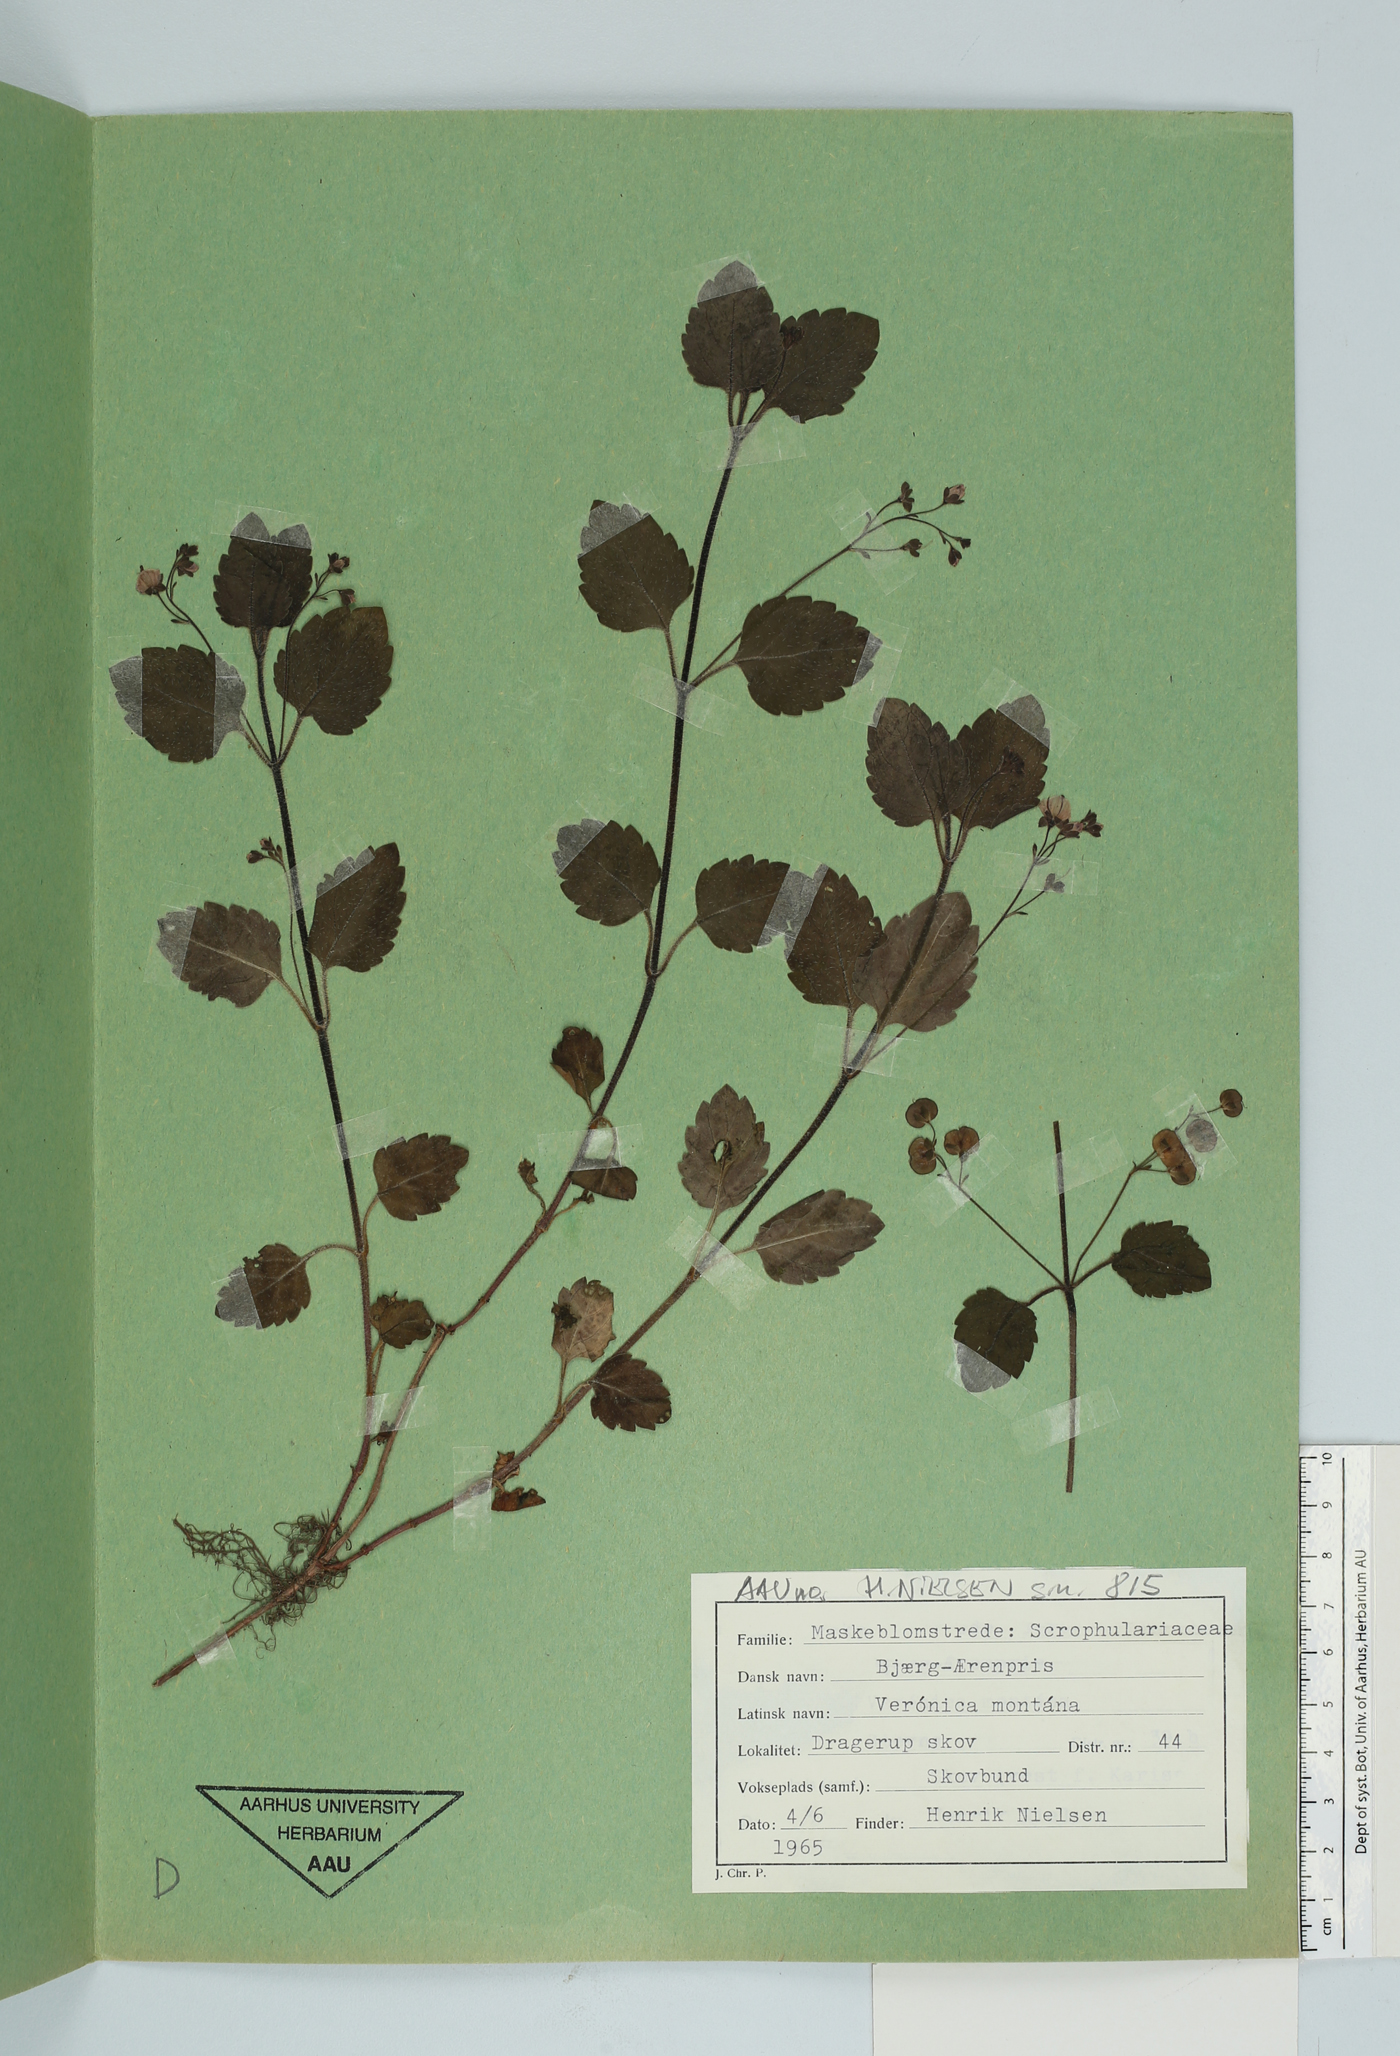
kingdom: Plantae
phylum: Tracheophyta
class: Magnoliopsida
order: Lamiales
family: Plantaginaceae
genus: Veronica
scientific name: Veronica montana
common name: Wood speedwell
